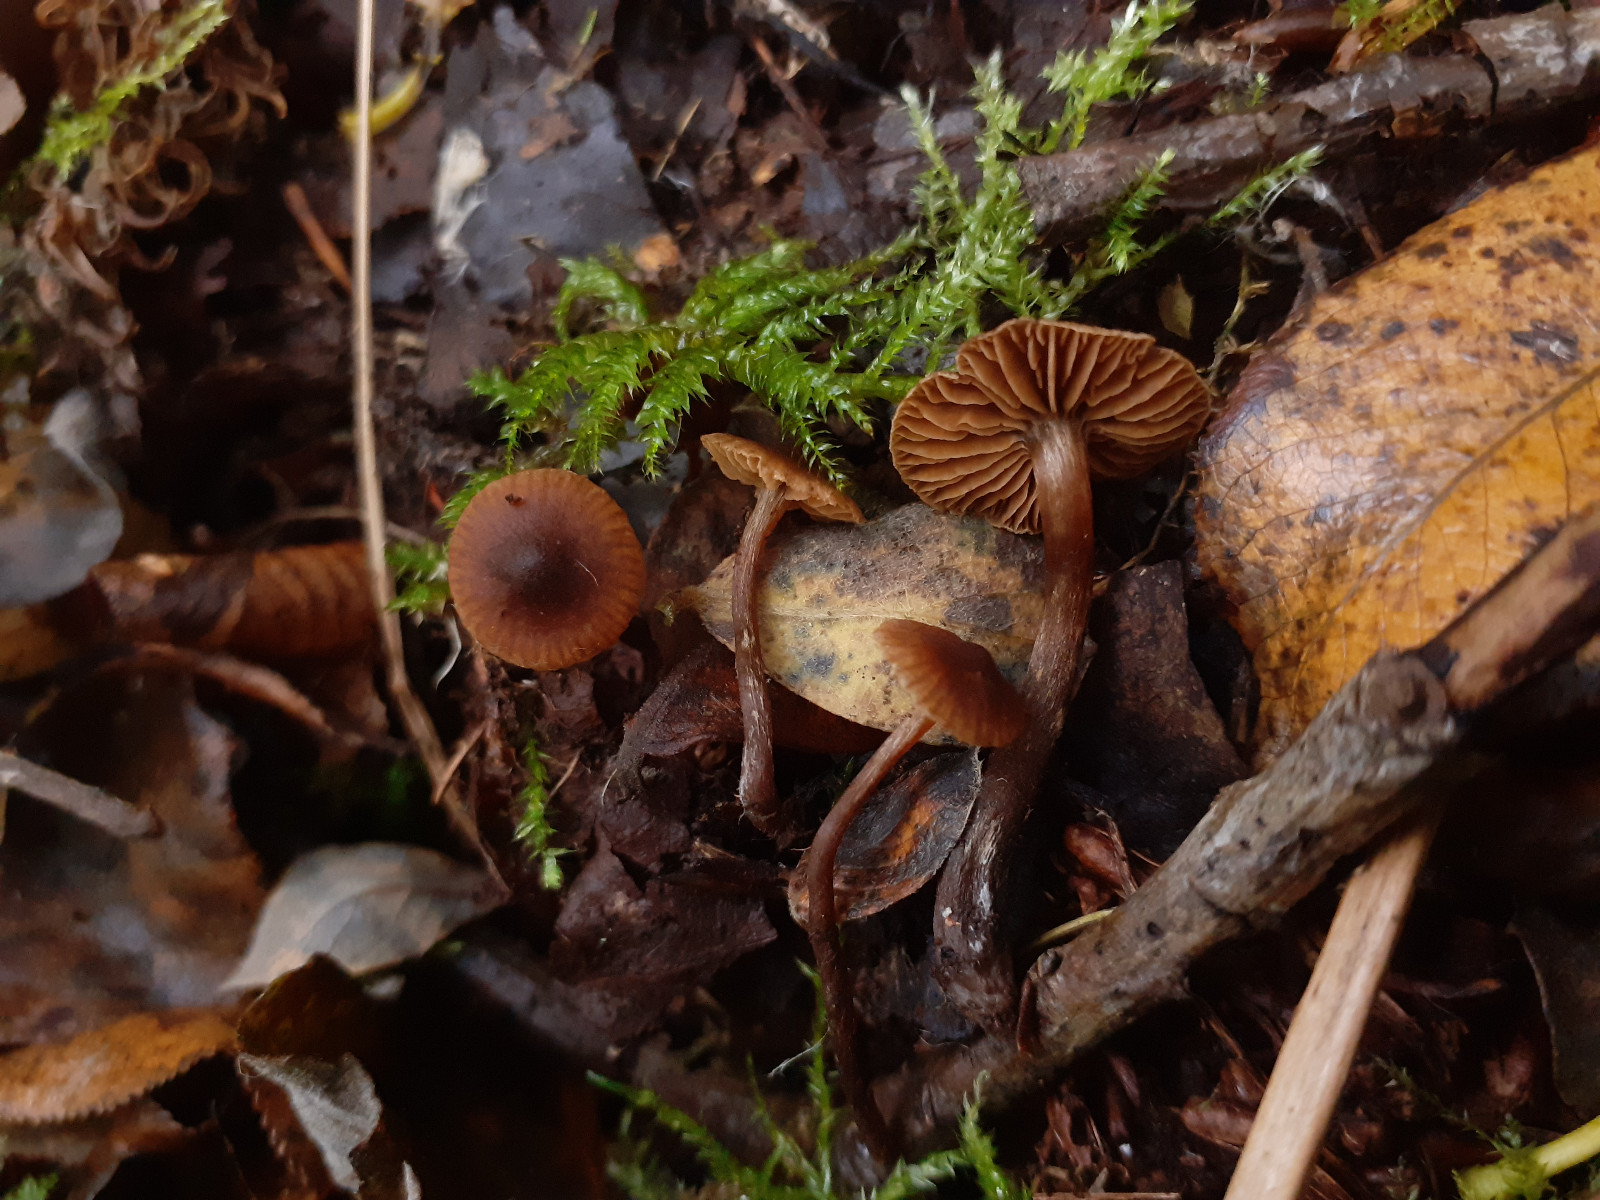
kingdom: Fungi
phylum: Basidiomycota
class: Agaricomycetes
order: Agaricales
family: Cortinariaceae
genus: Cortinarius
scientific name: Cortinarius
